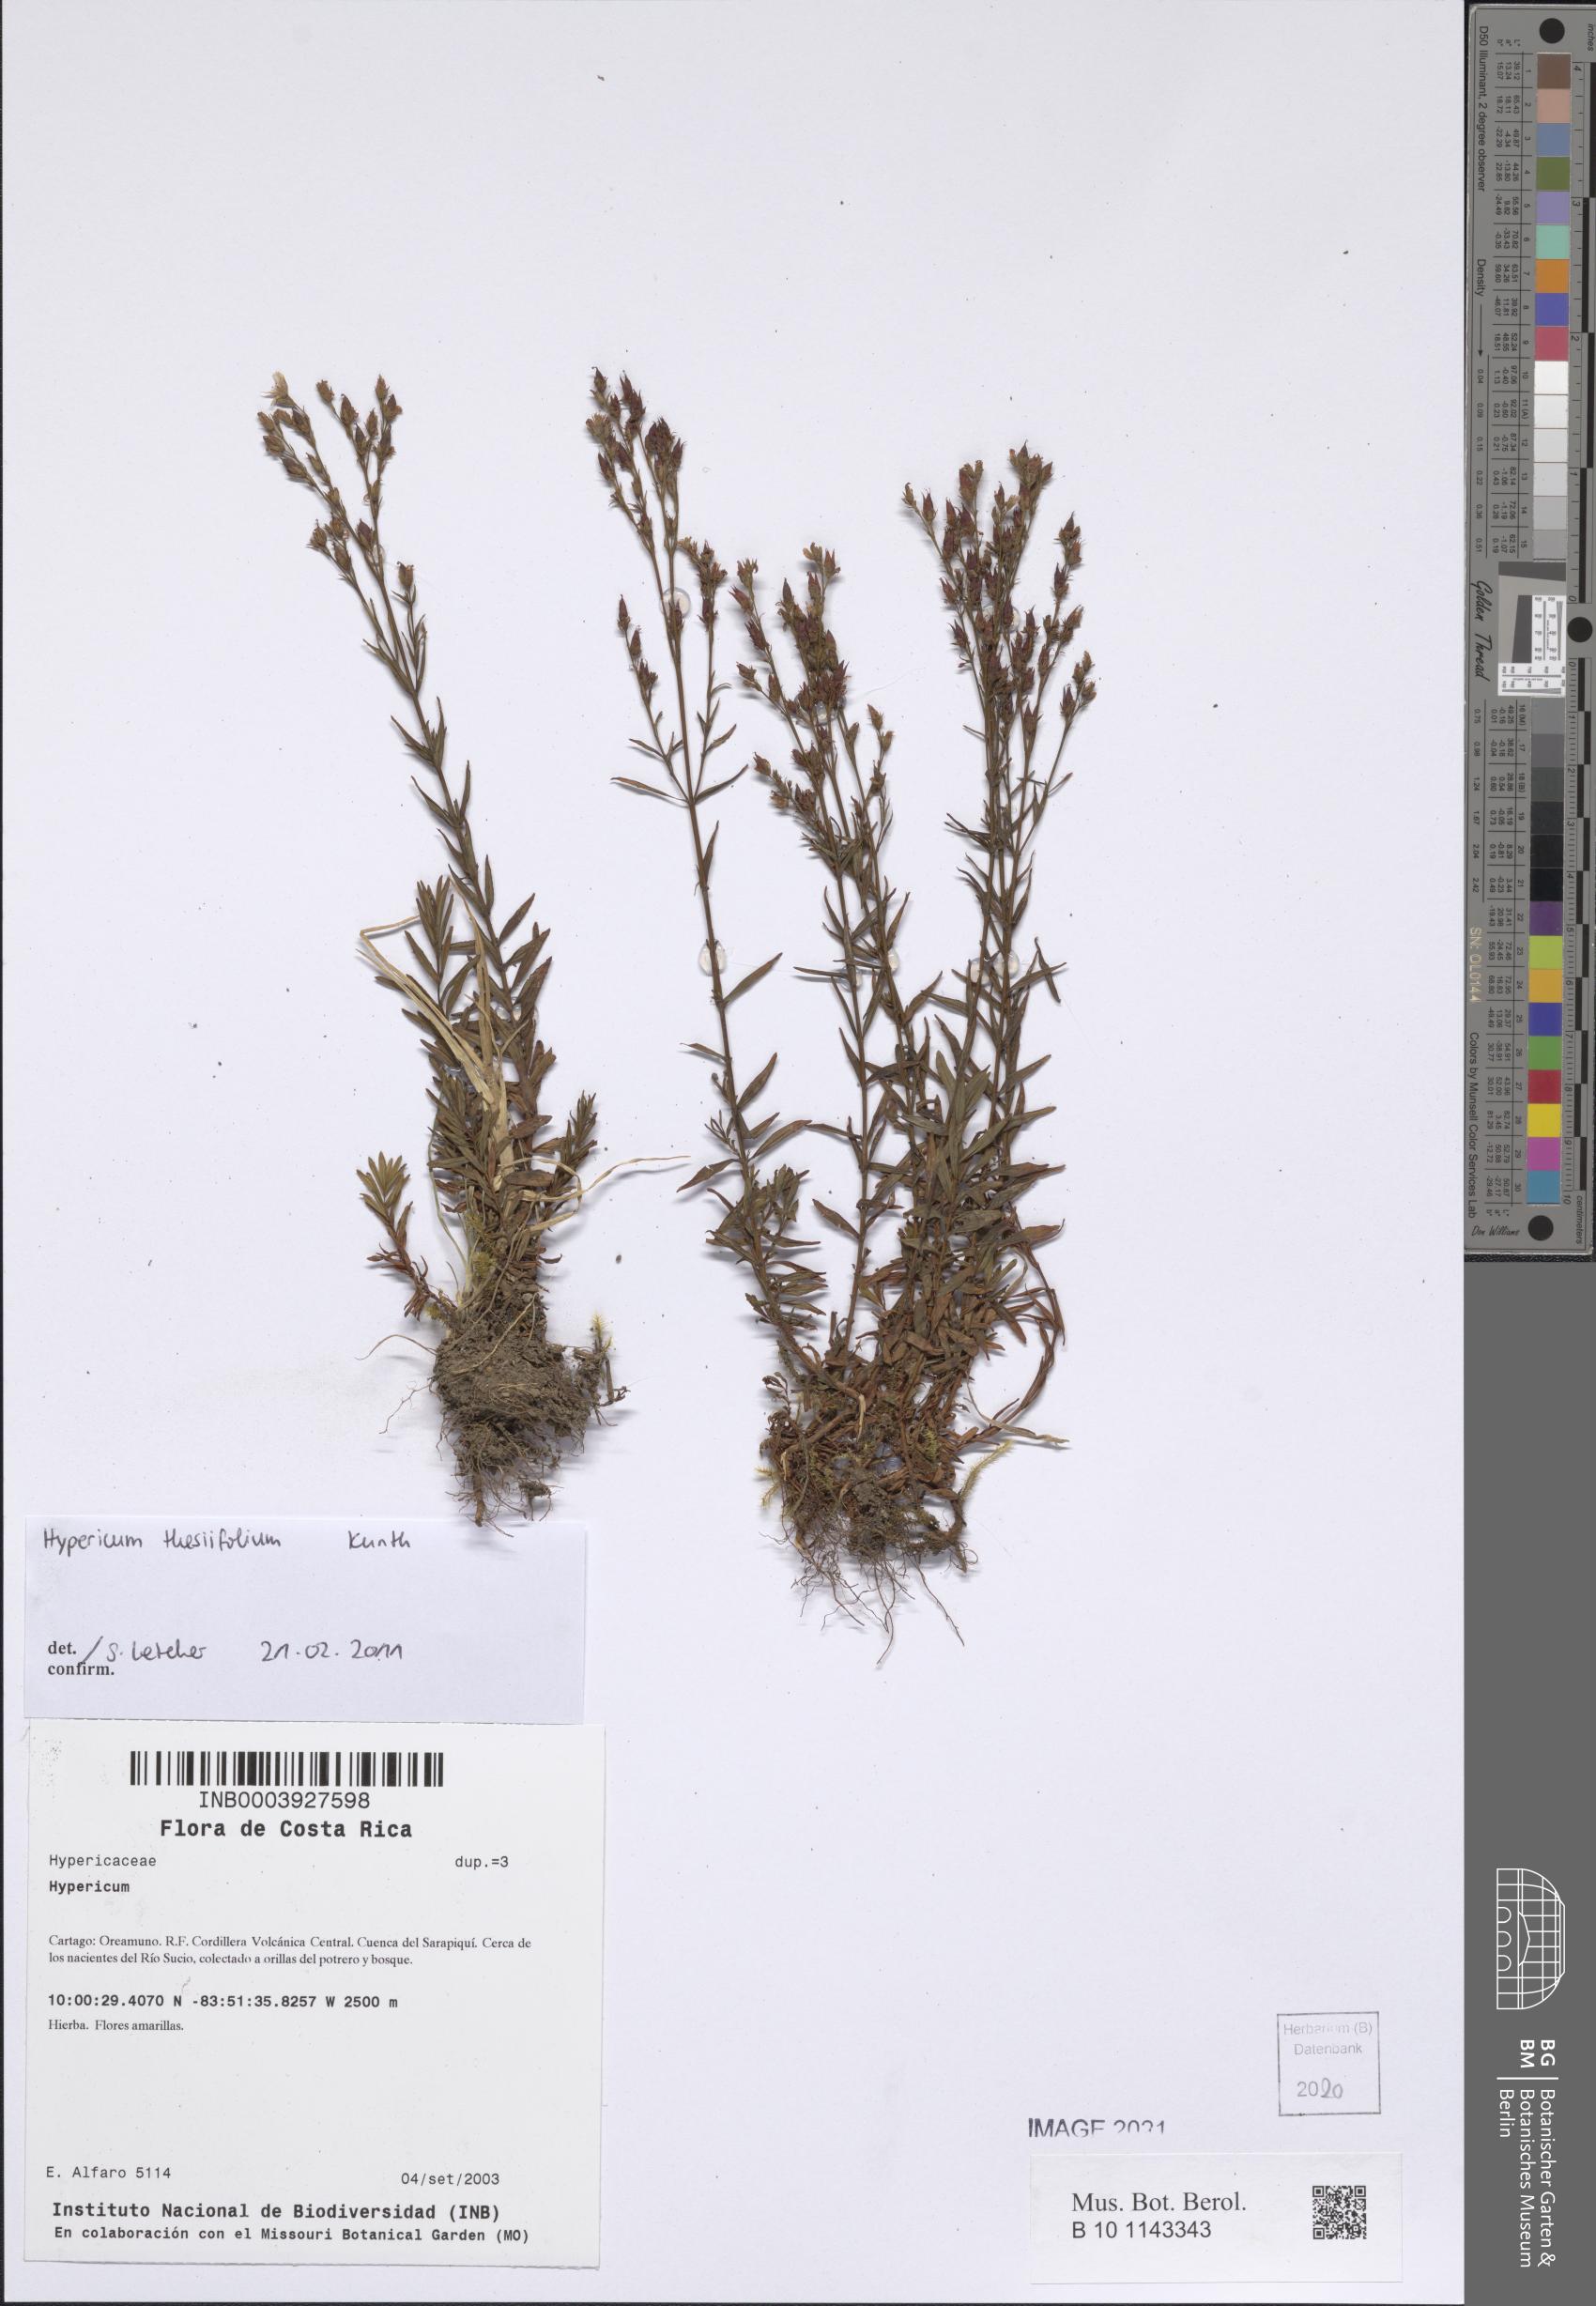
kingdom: Plantae
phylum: Tracheophyta
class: Magnoliopsida
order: Malpighiales
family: Hypericaceae
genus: Hypericum
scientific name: Hypericum thesiifolium
